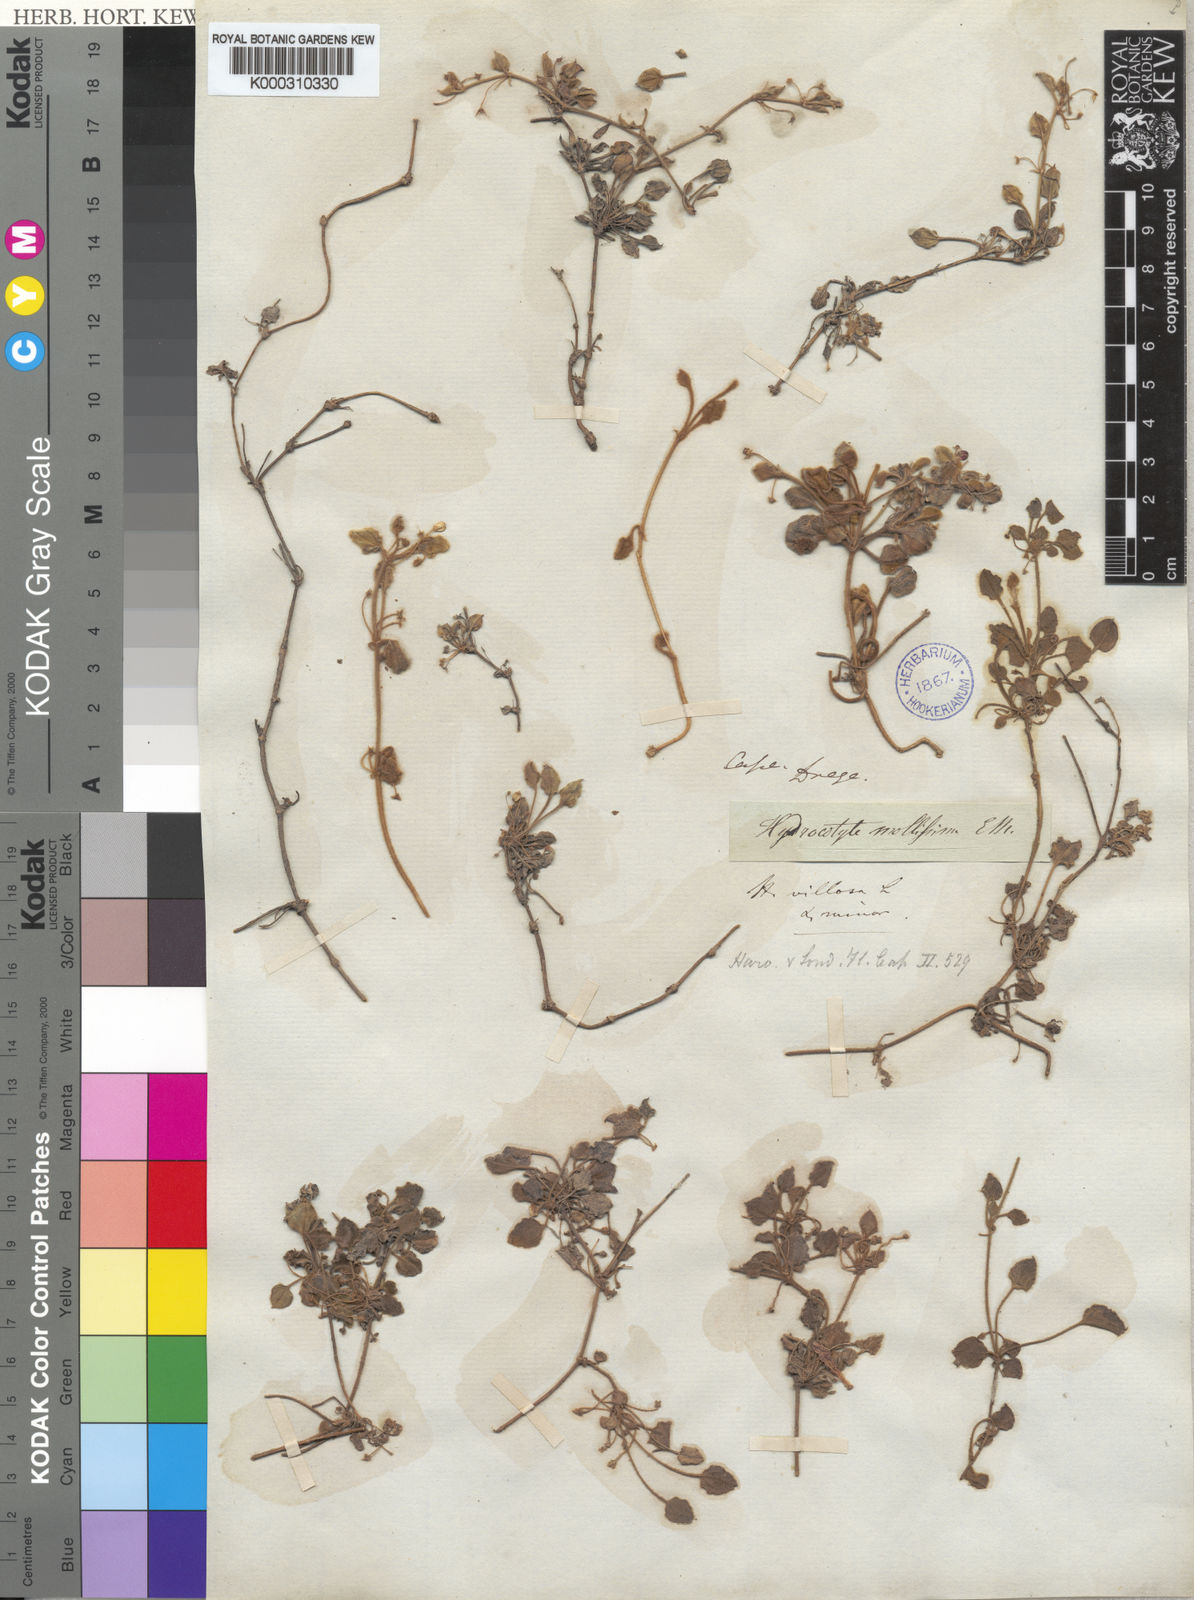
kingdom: Plantae
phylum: Tracheophyta
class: Magnoliopsida
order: Apiales
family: Apiaceae
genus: Centella
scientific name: Centella villosa
